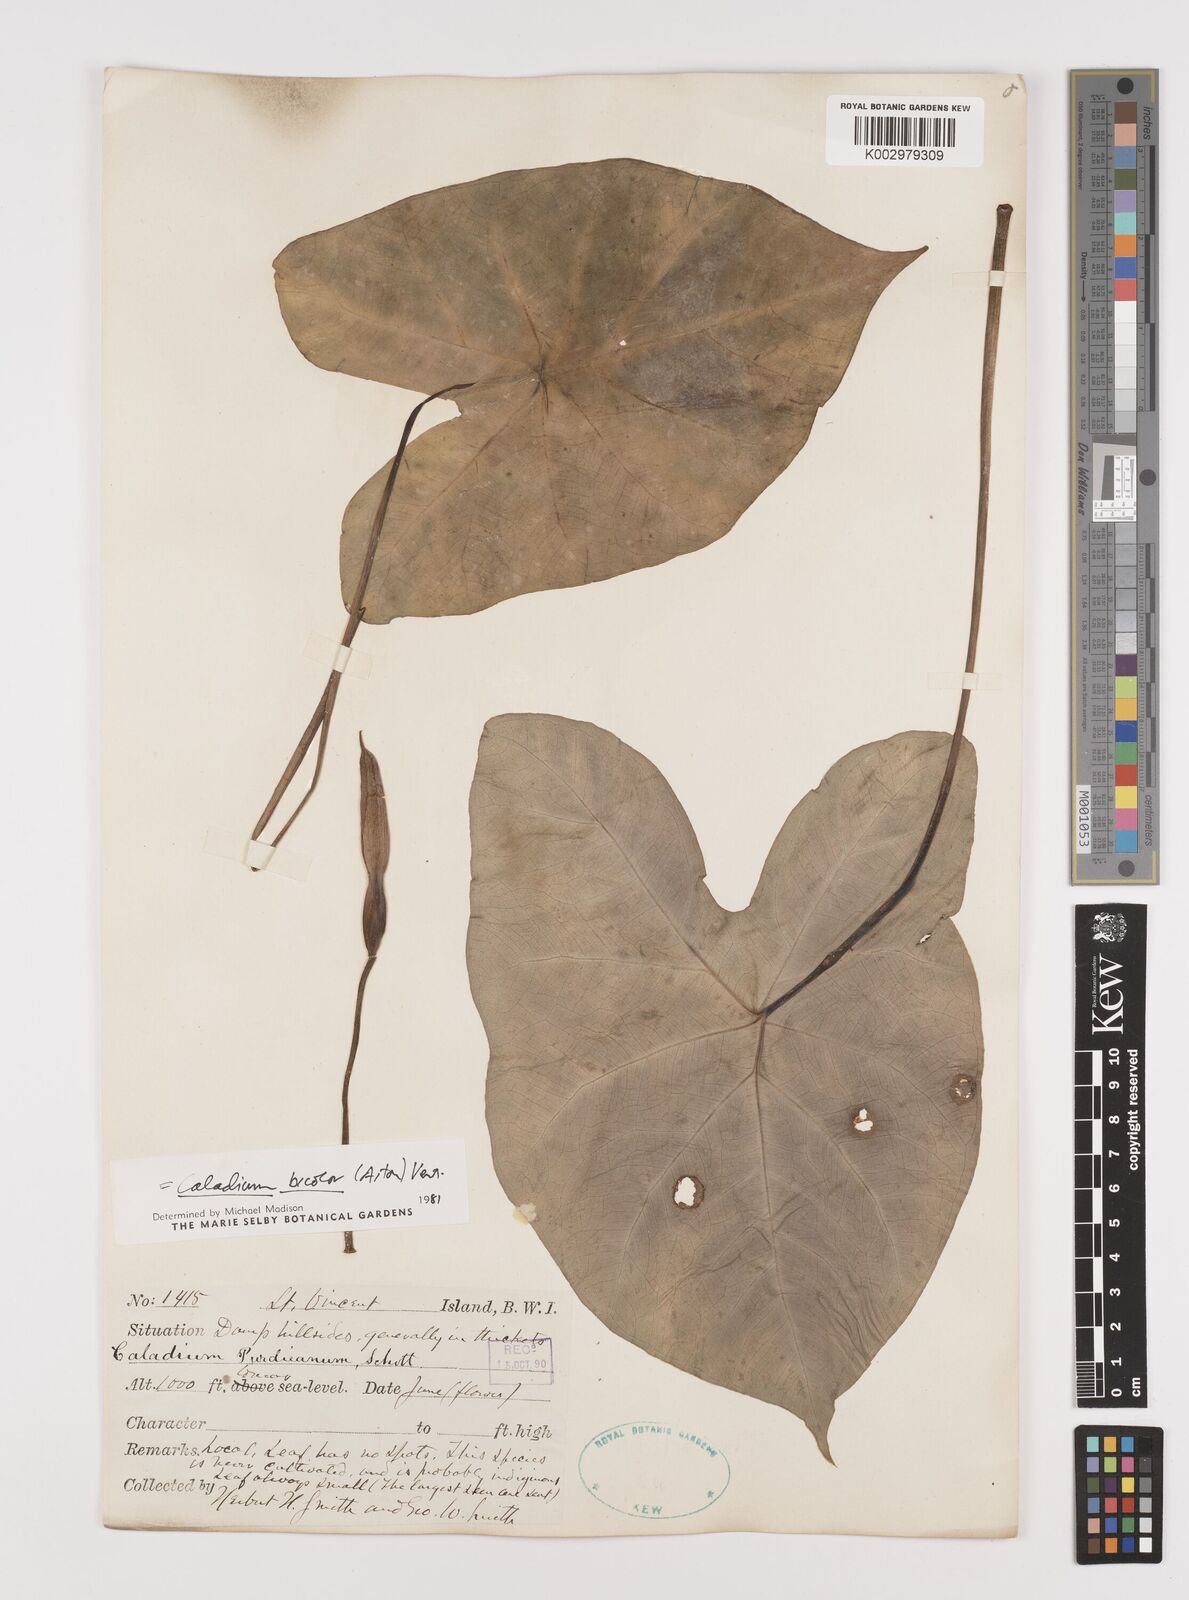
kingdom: Plantae
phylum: Tracheophyta
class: Liliopsida
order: Alismatales
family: Araceae
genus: Caladium
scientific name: Caladium bicolor
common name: Artist's pallet
